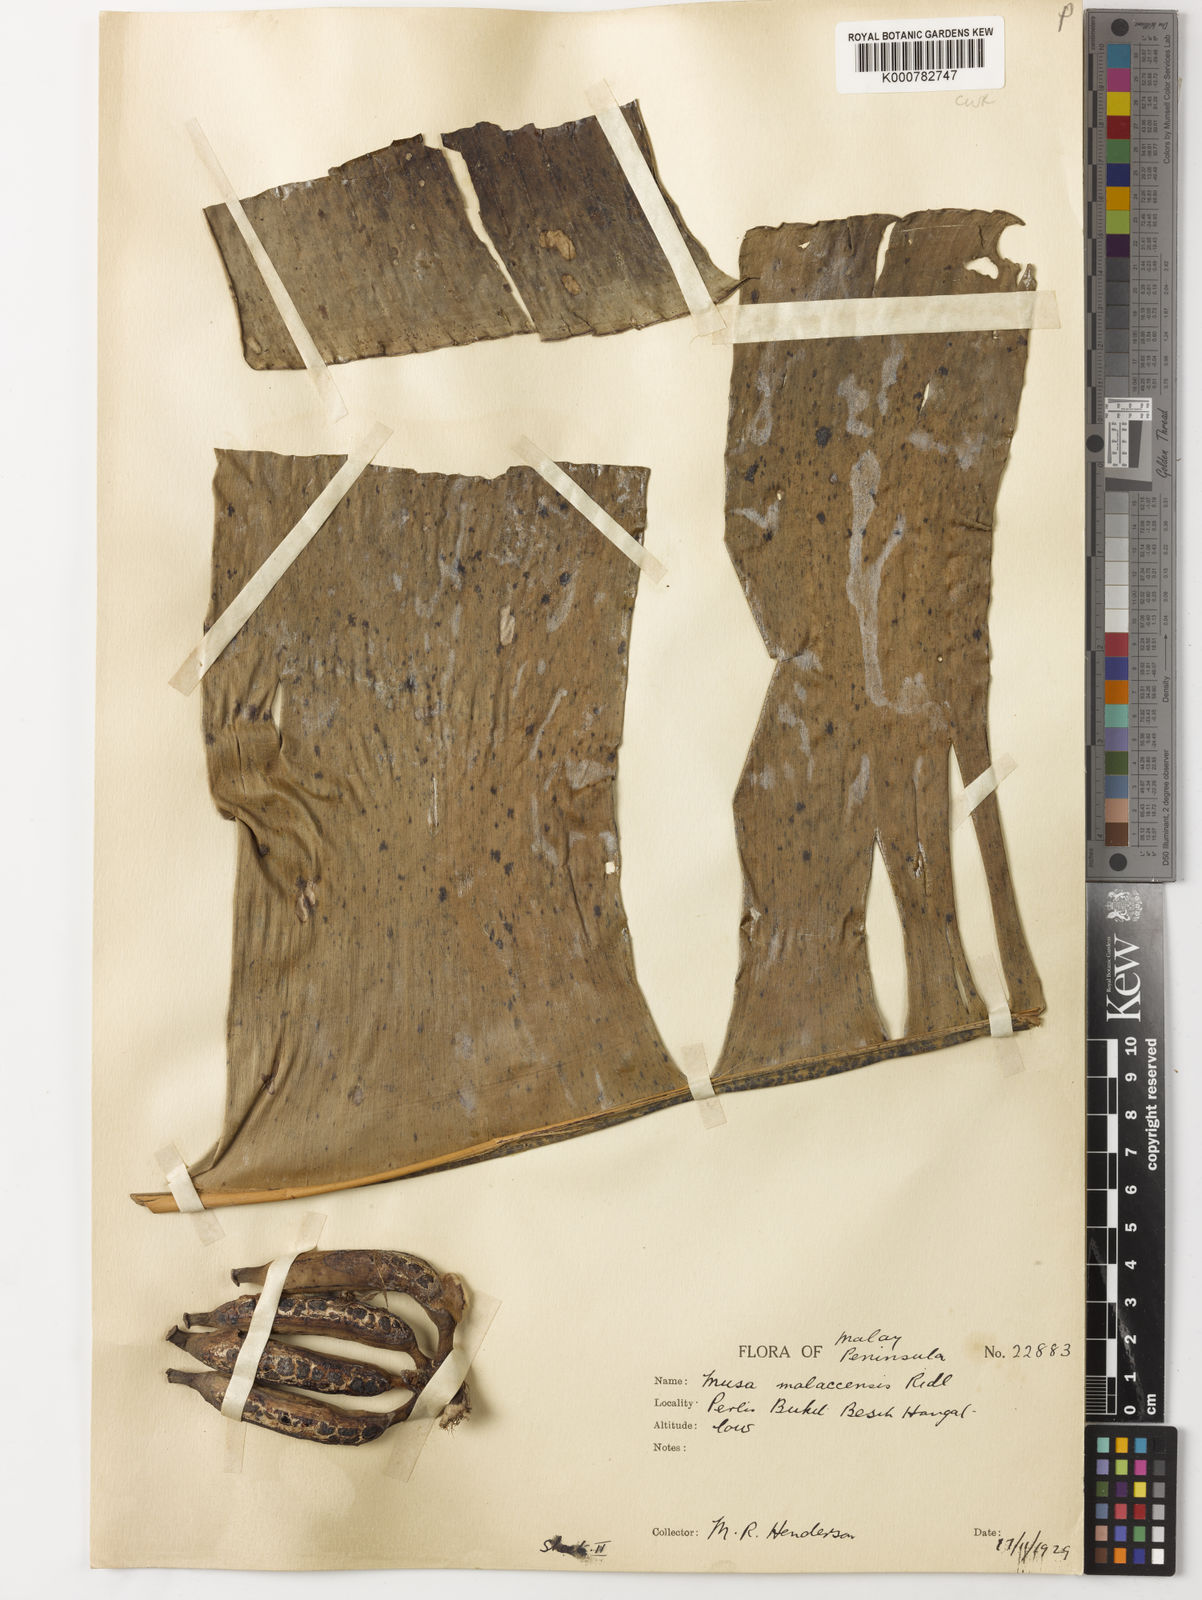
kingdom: Plantae
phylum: Tracheophyta
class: Liliopsida
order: Zingiberales
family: Musaceae
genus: Musa
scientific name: Musa acuminata
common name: Edible banana
